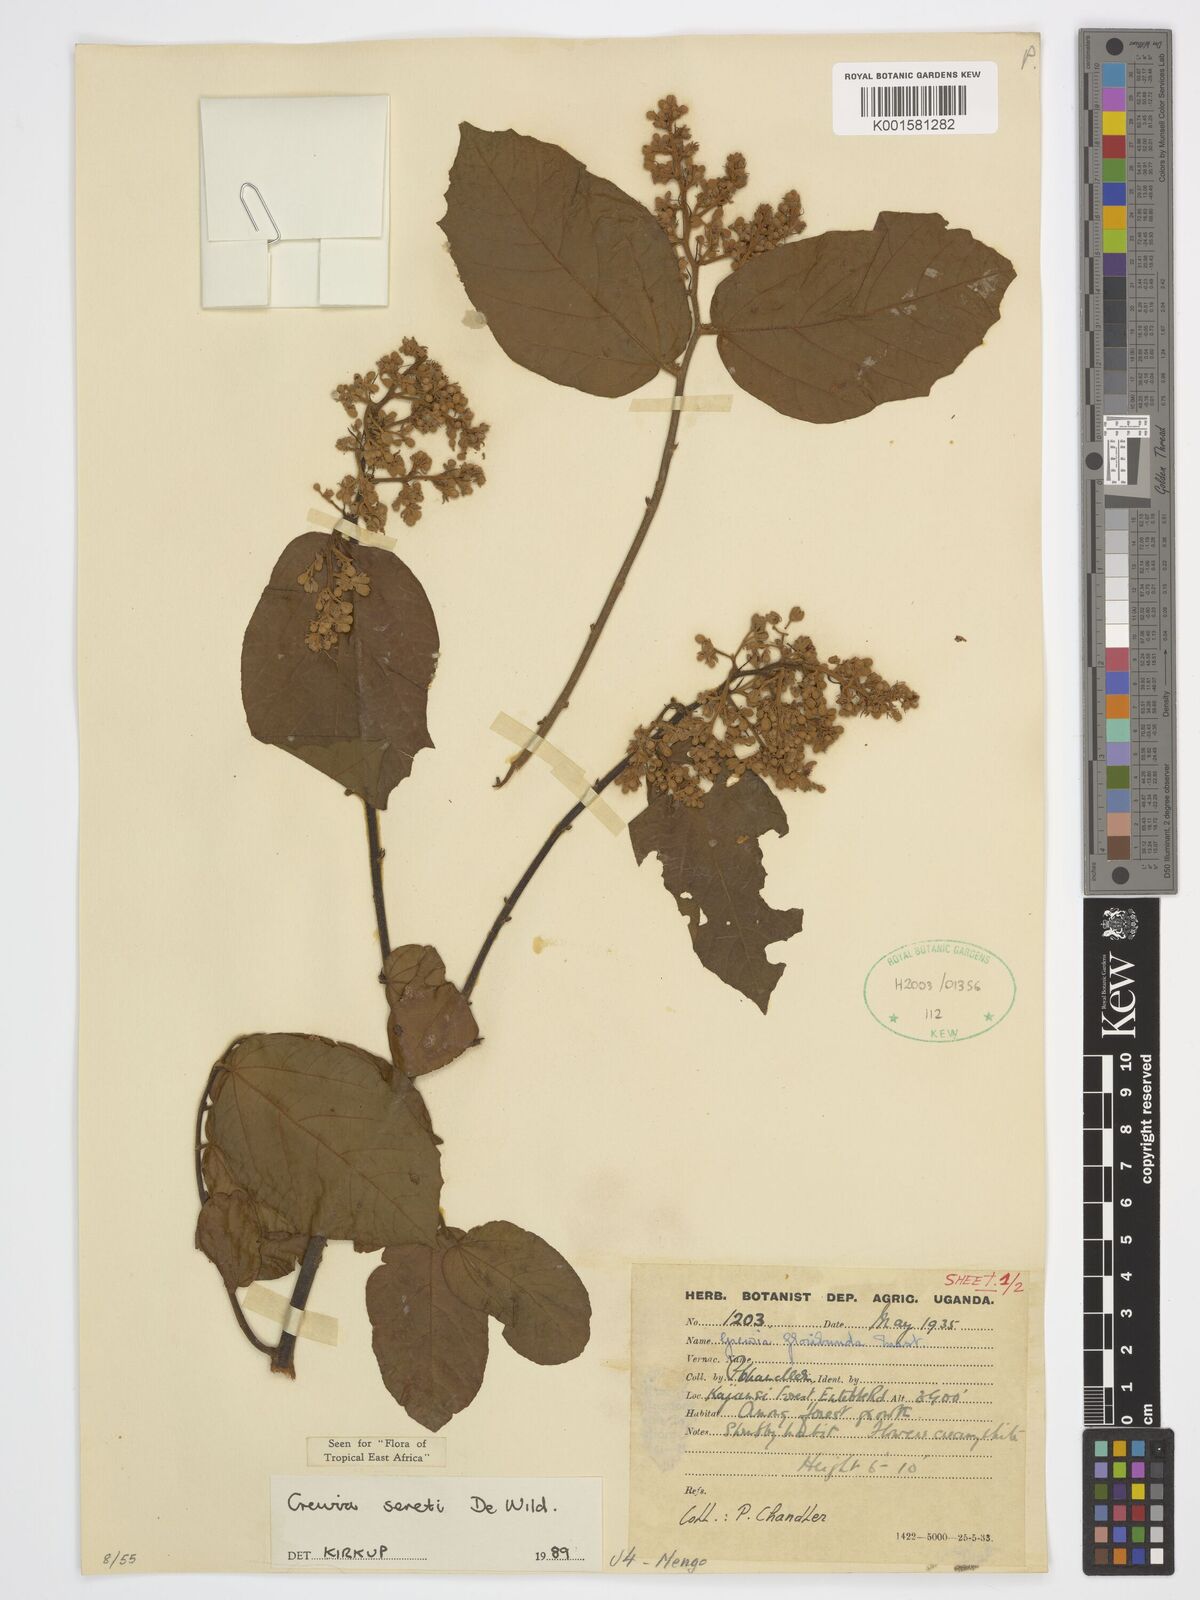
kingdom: Plantae
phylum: Tracheophyta
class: Magnoliopsida
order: Malvales
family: Malvaceae
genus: Microcos
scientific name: Microcos seretii
